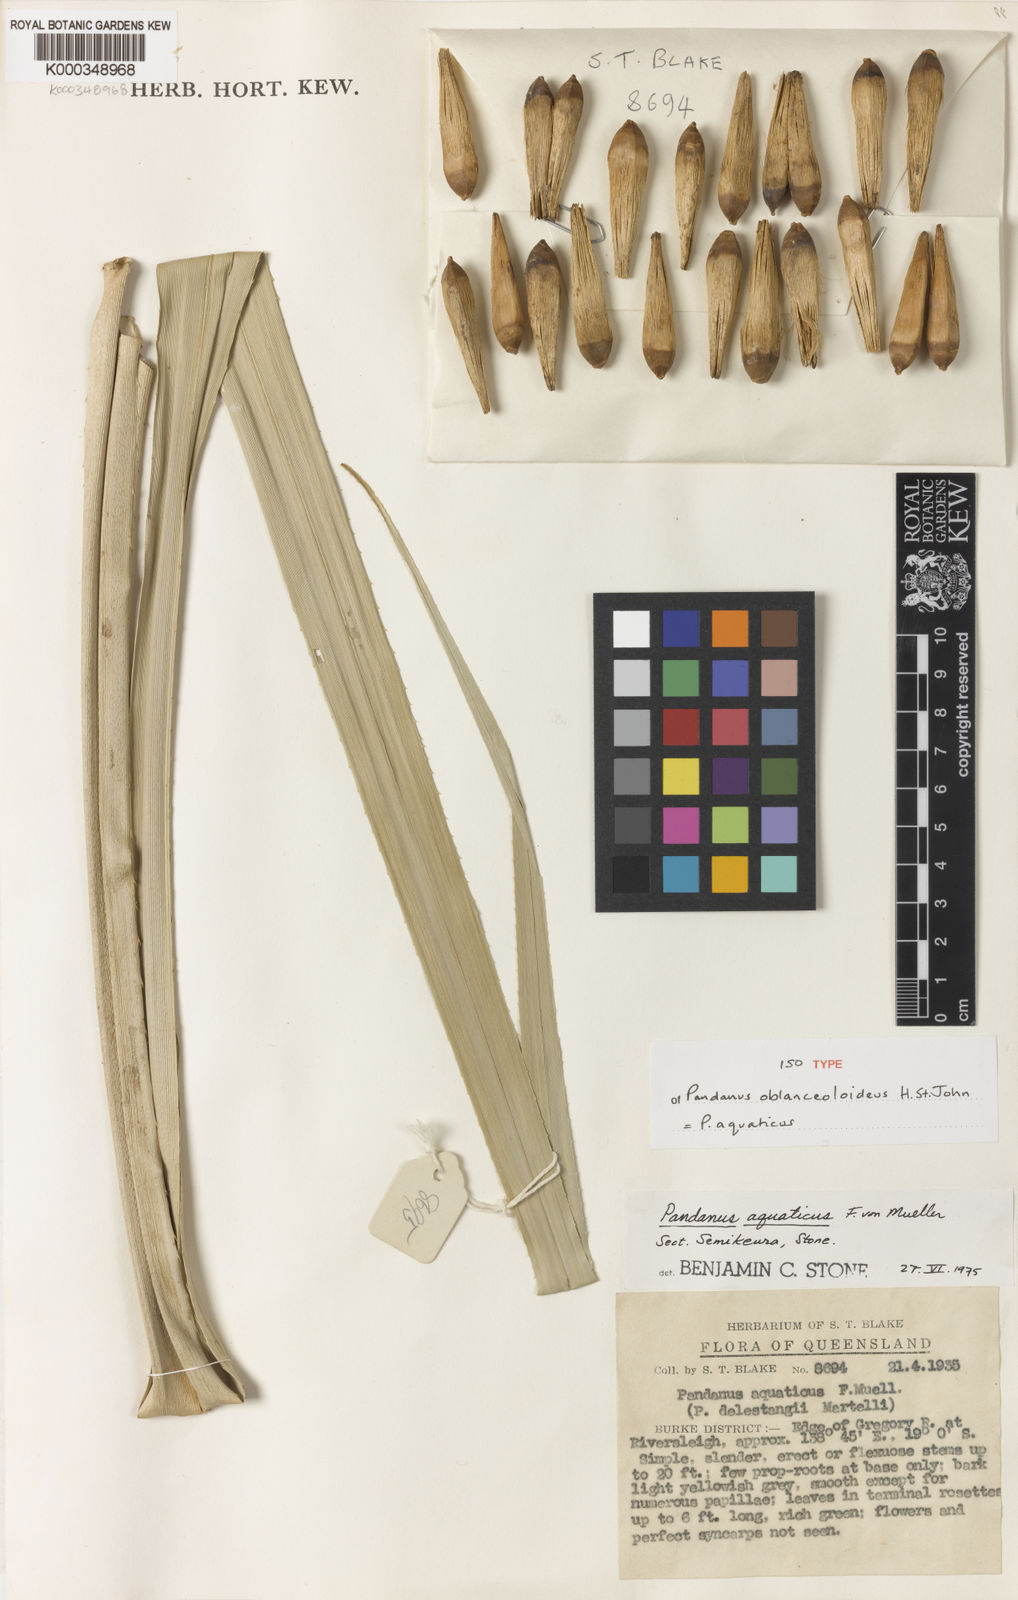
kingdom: Plantae
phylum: Tracheophyta
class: Liliopsida
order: Pandanales
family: Pandanaceae
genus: Pandanus
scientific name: Pandanus
